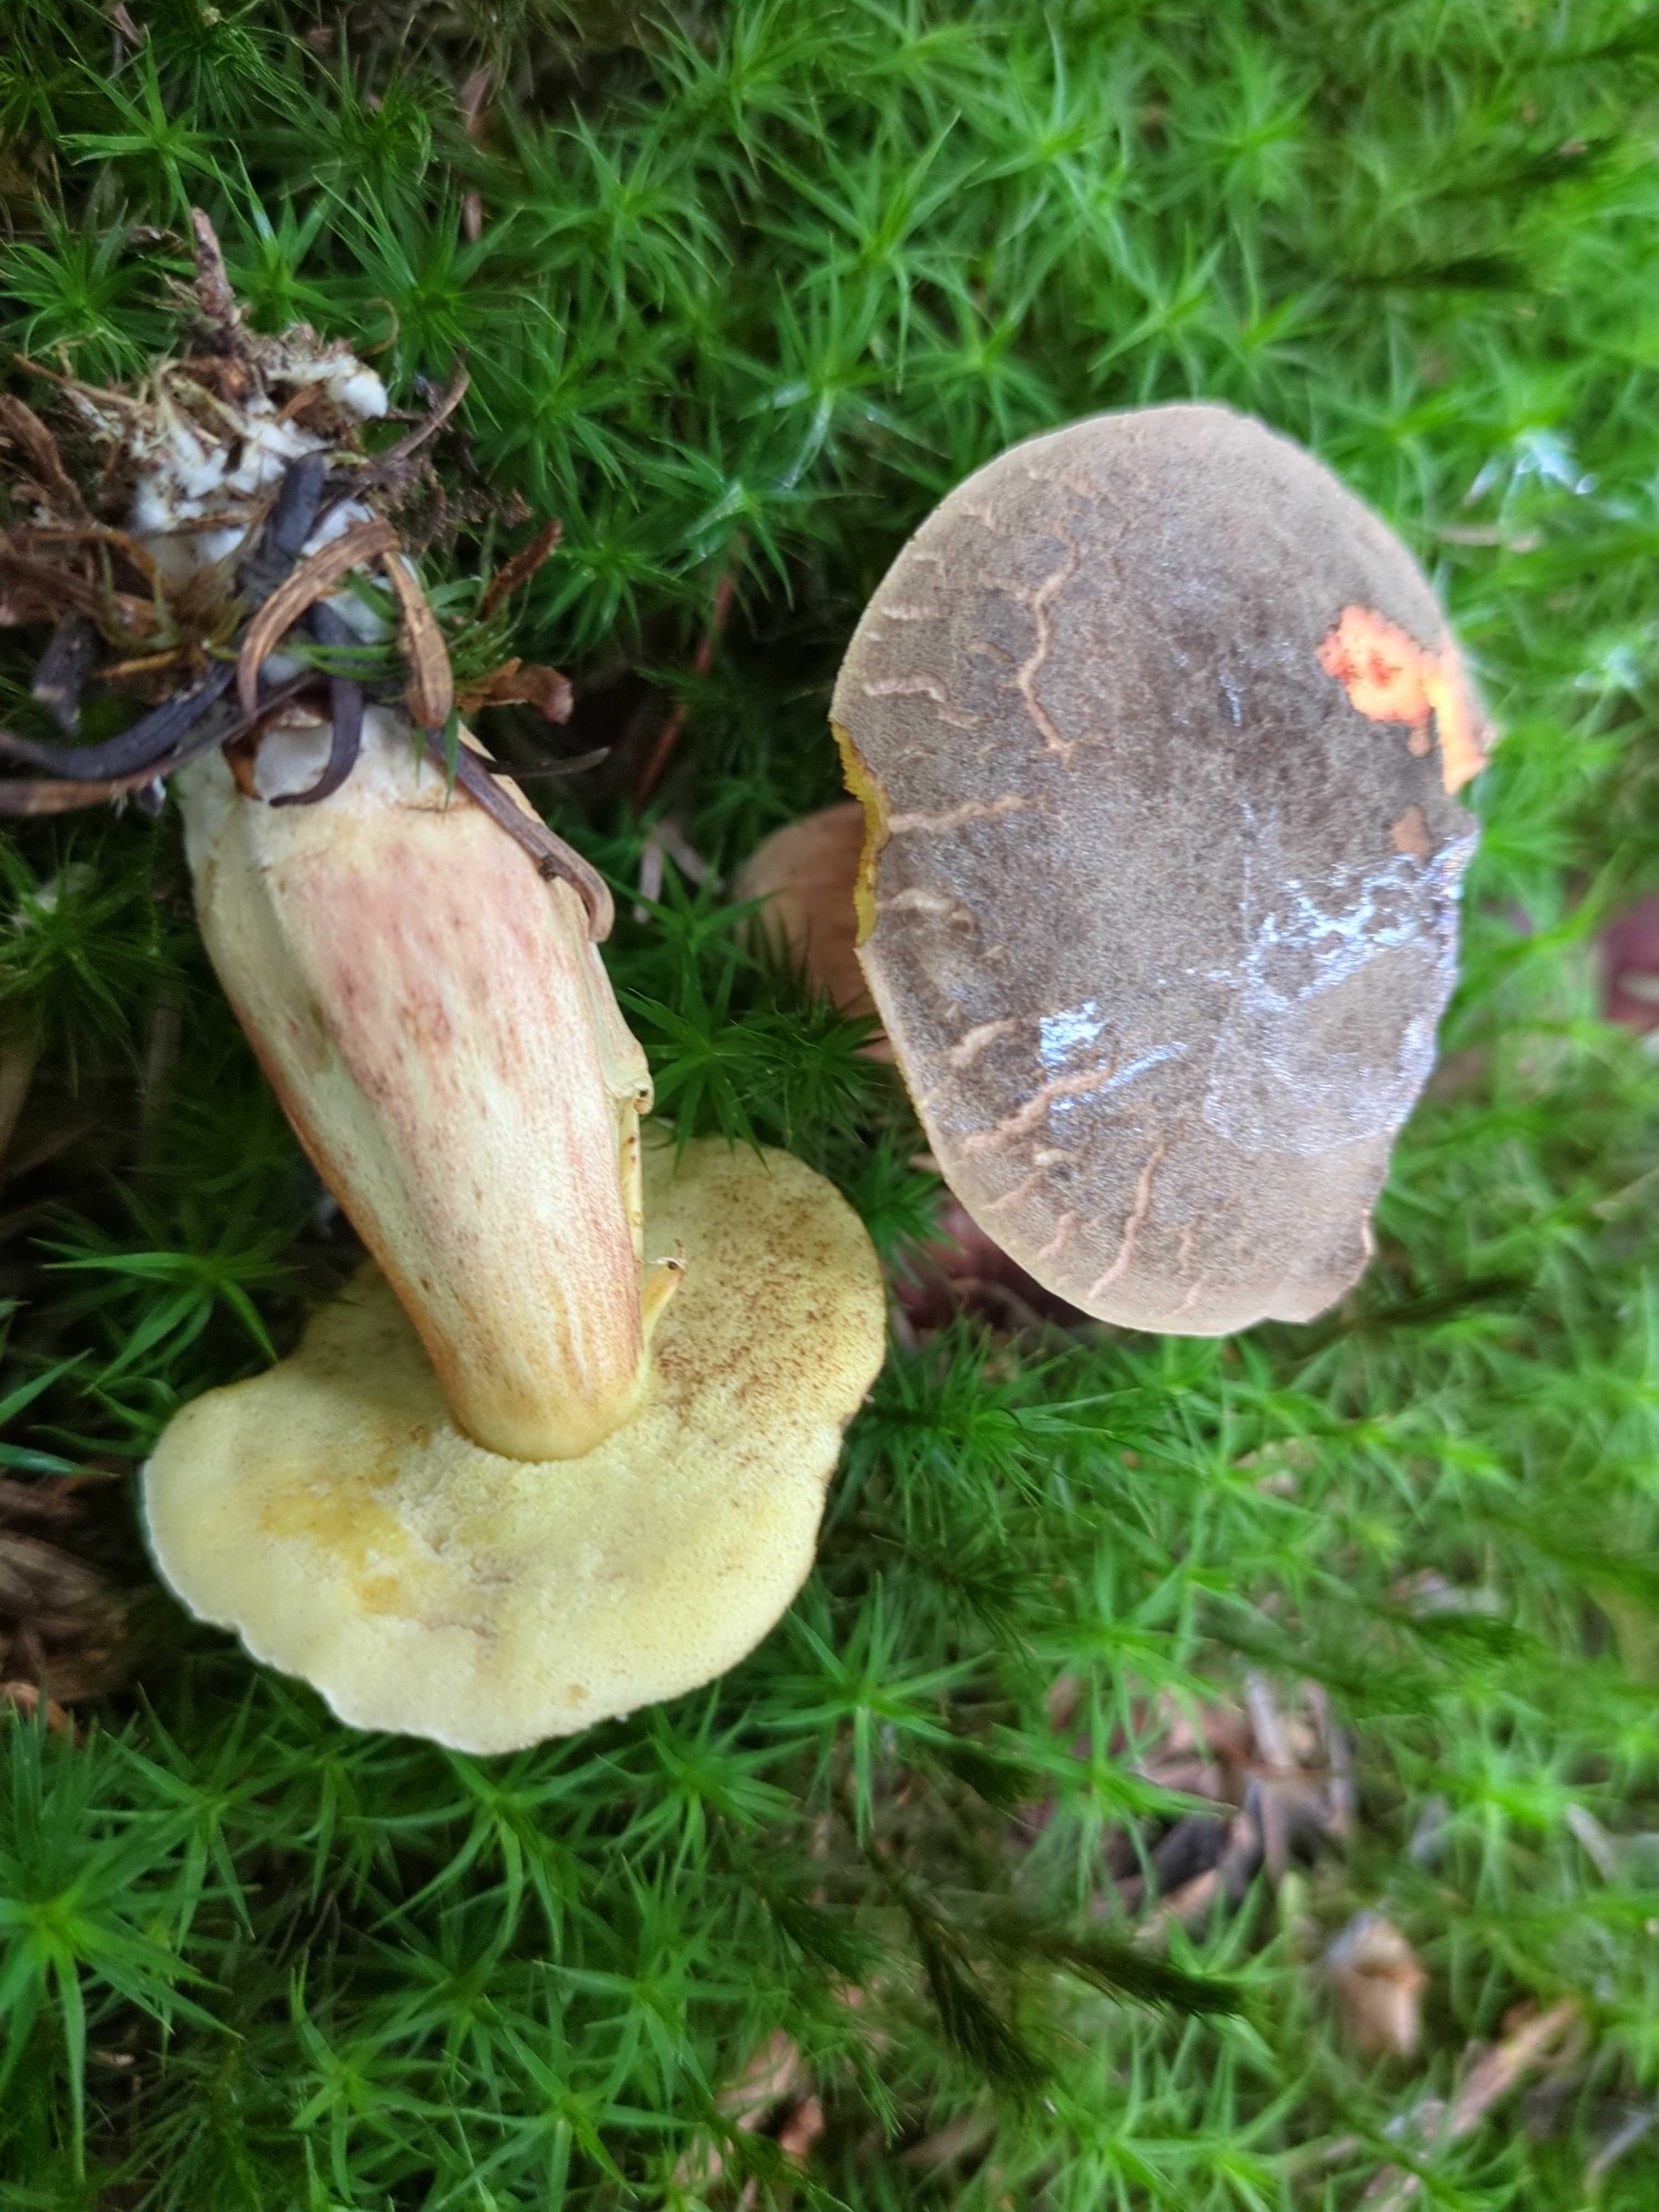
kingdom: Fungi
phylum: Basidiomycota
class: Agaricomycetes
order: Boletales
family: Boletaceae
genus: Xerocomellus
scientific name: Xerocomellus
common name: dværgrørhat
